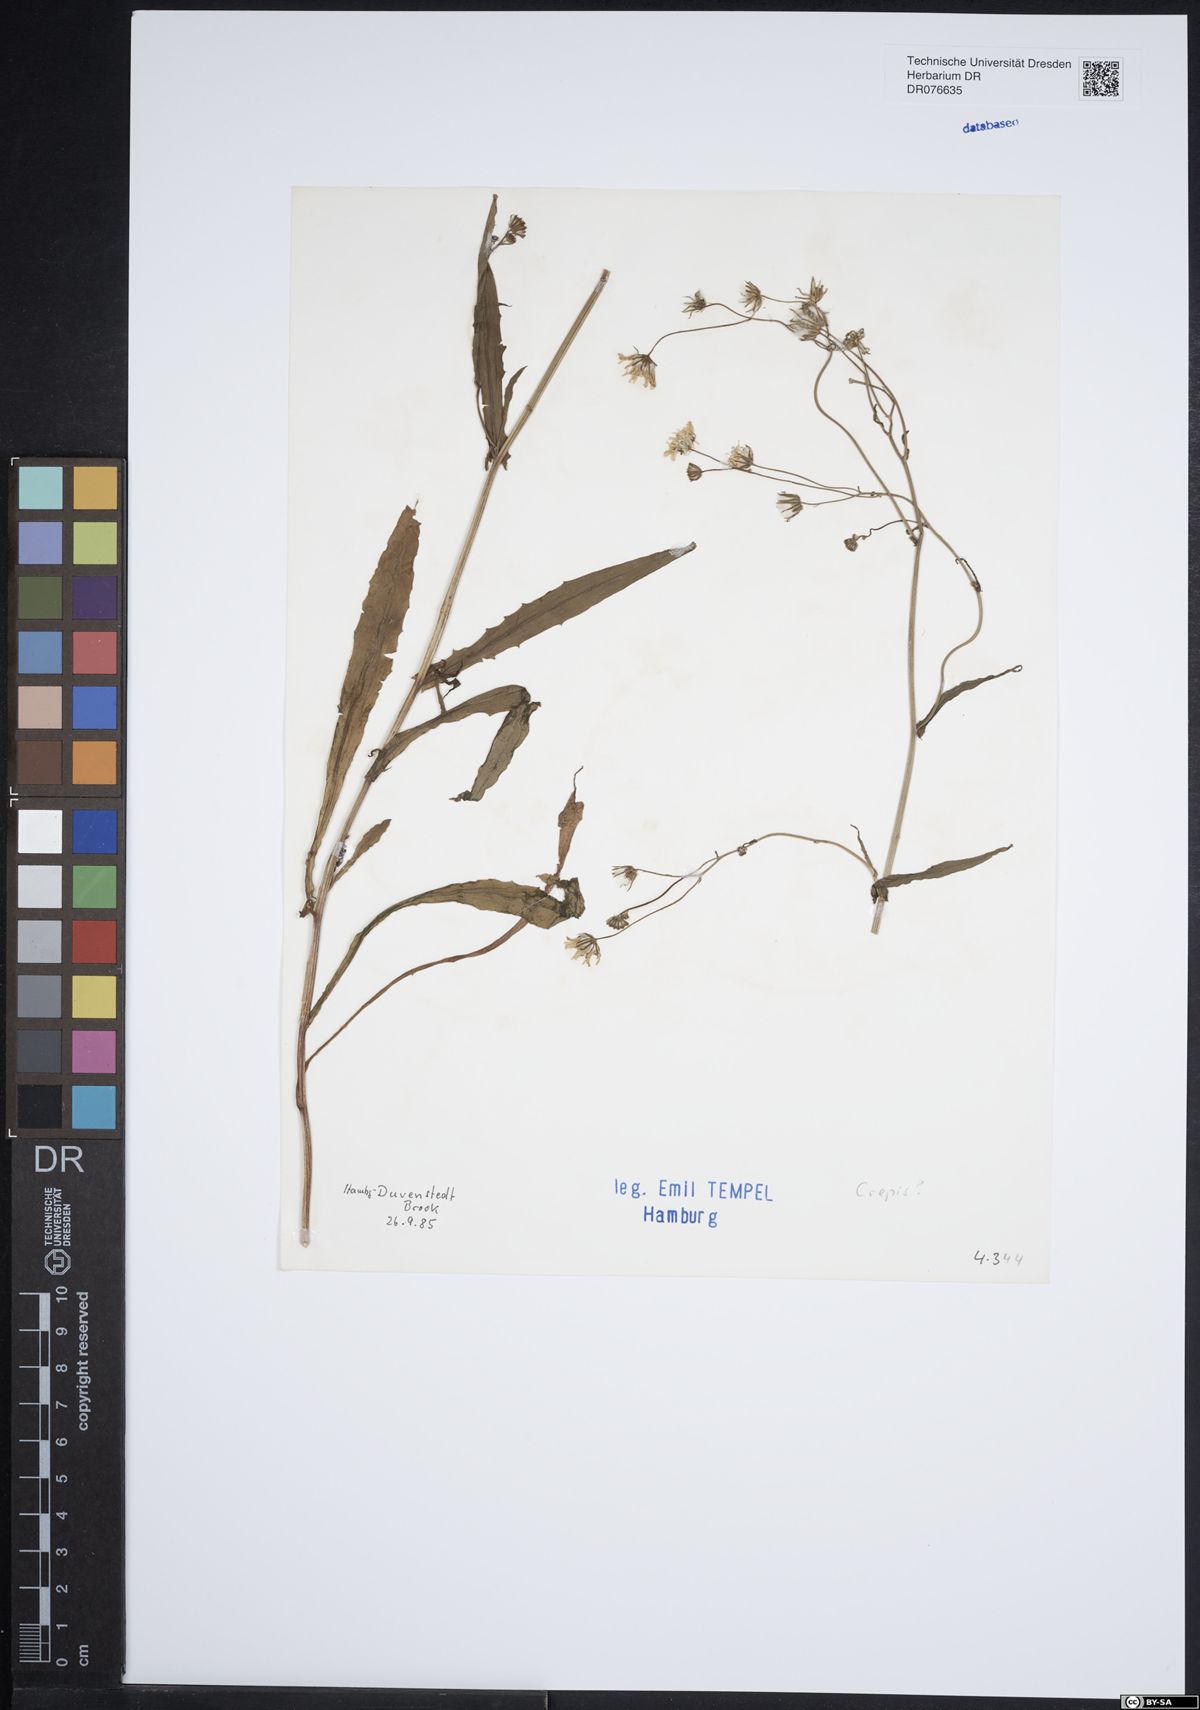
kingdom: Plantae
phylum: Tracheophyta
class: Magnoliopsida
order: Asterales
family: Asteraceae
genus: Crepis
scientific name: Crepis
